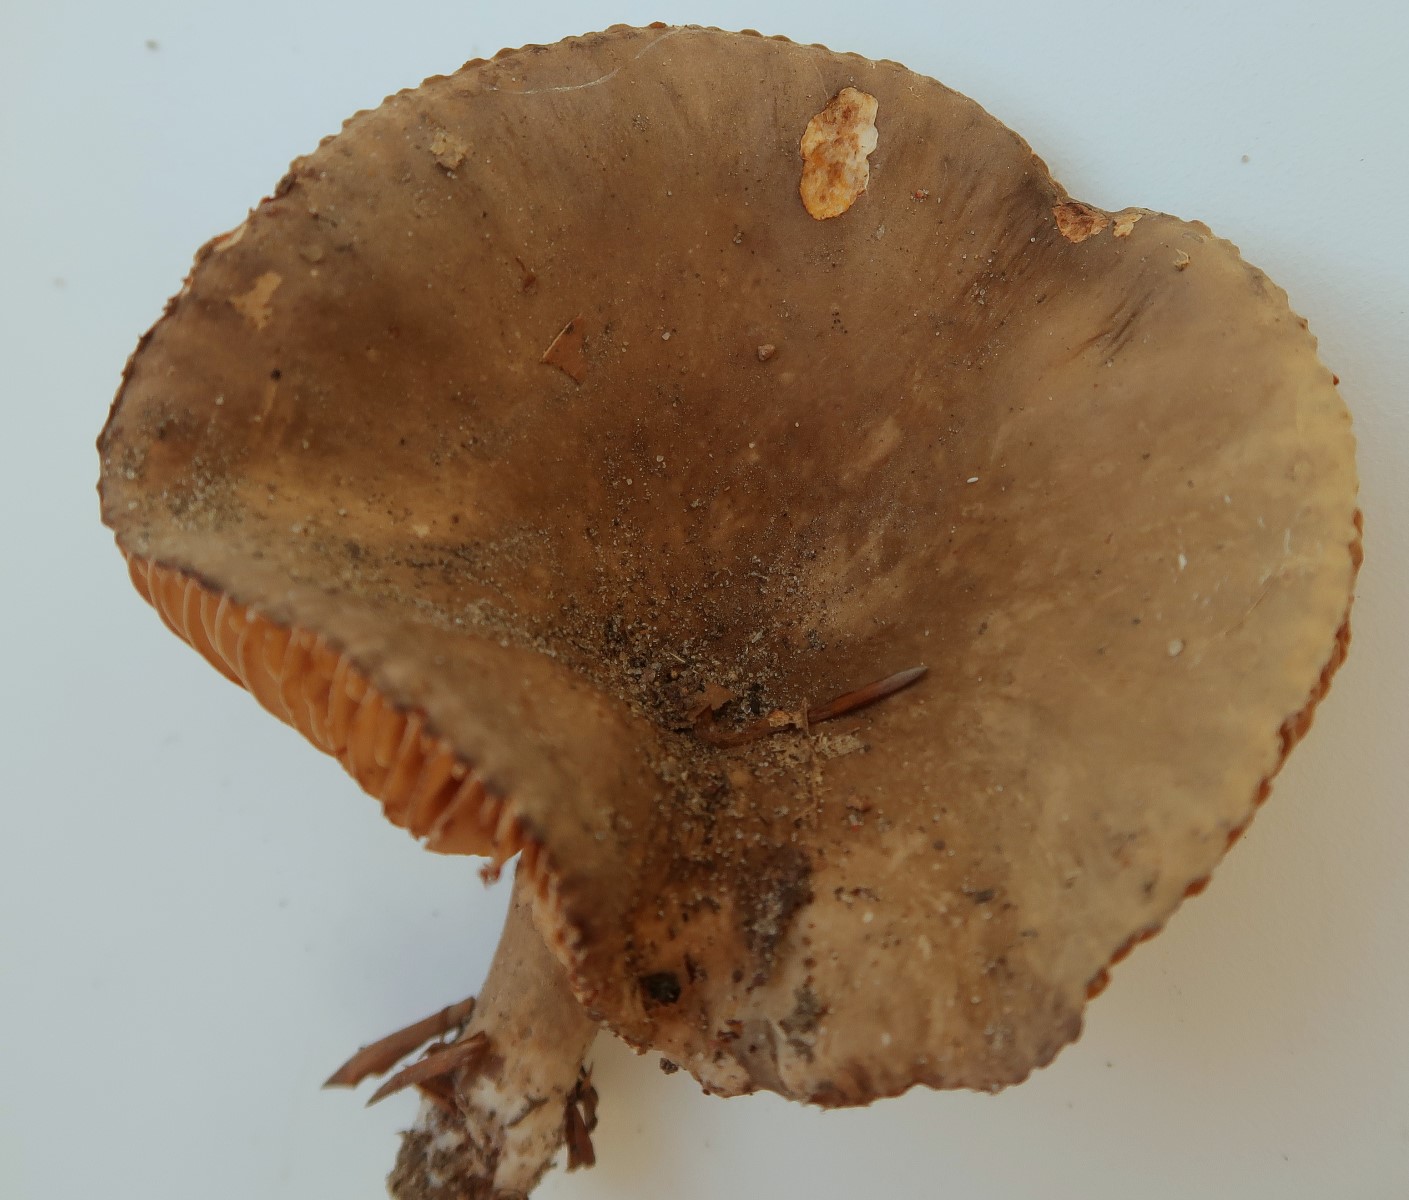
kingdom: Fungi
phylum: Basidiomycota
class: Agaricomycetes
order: Russulales
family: Russulaceae
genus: Lactarius
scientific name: Lactarius romagnesii
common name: fjernbladet mælkehat
